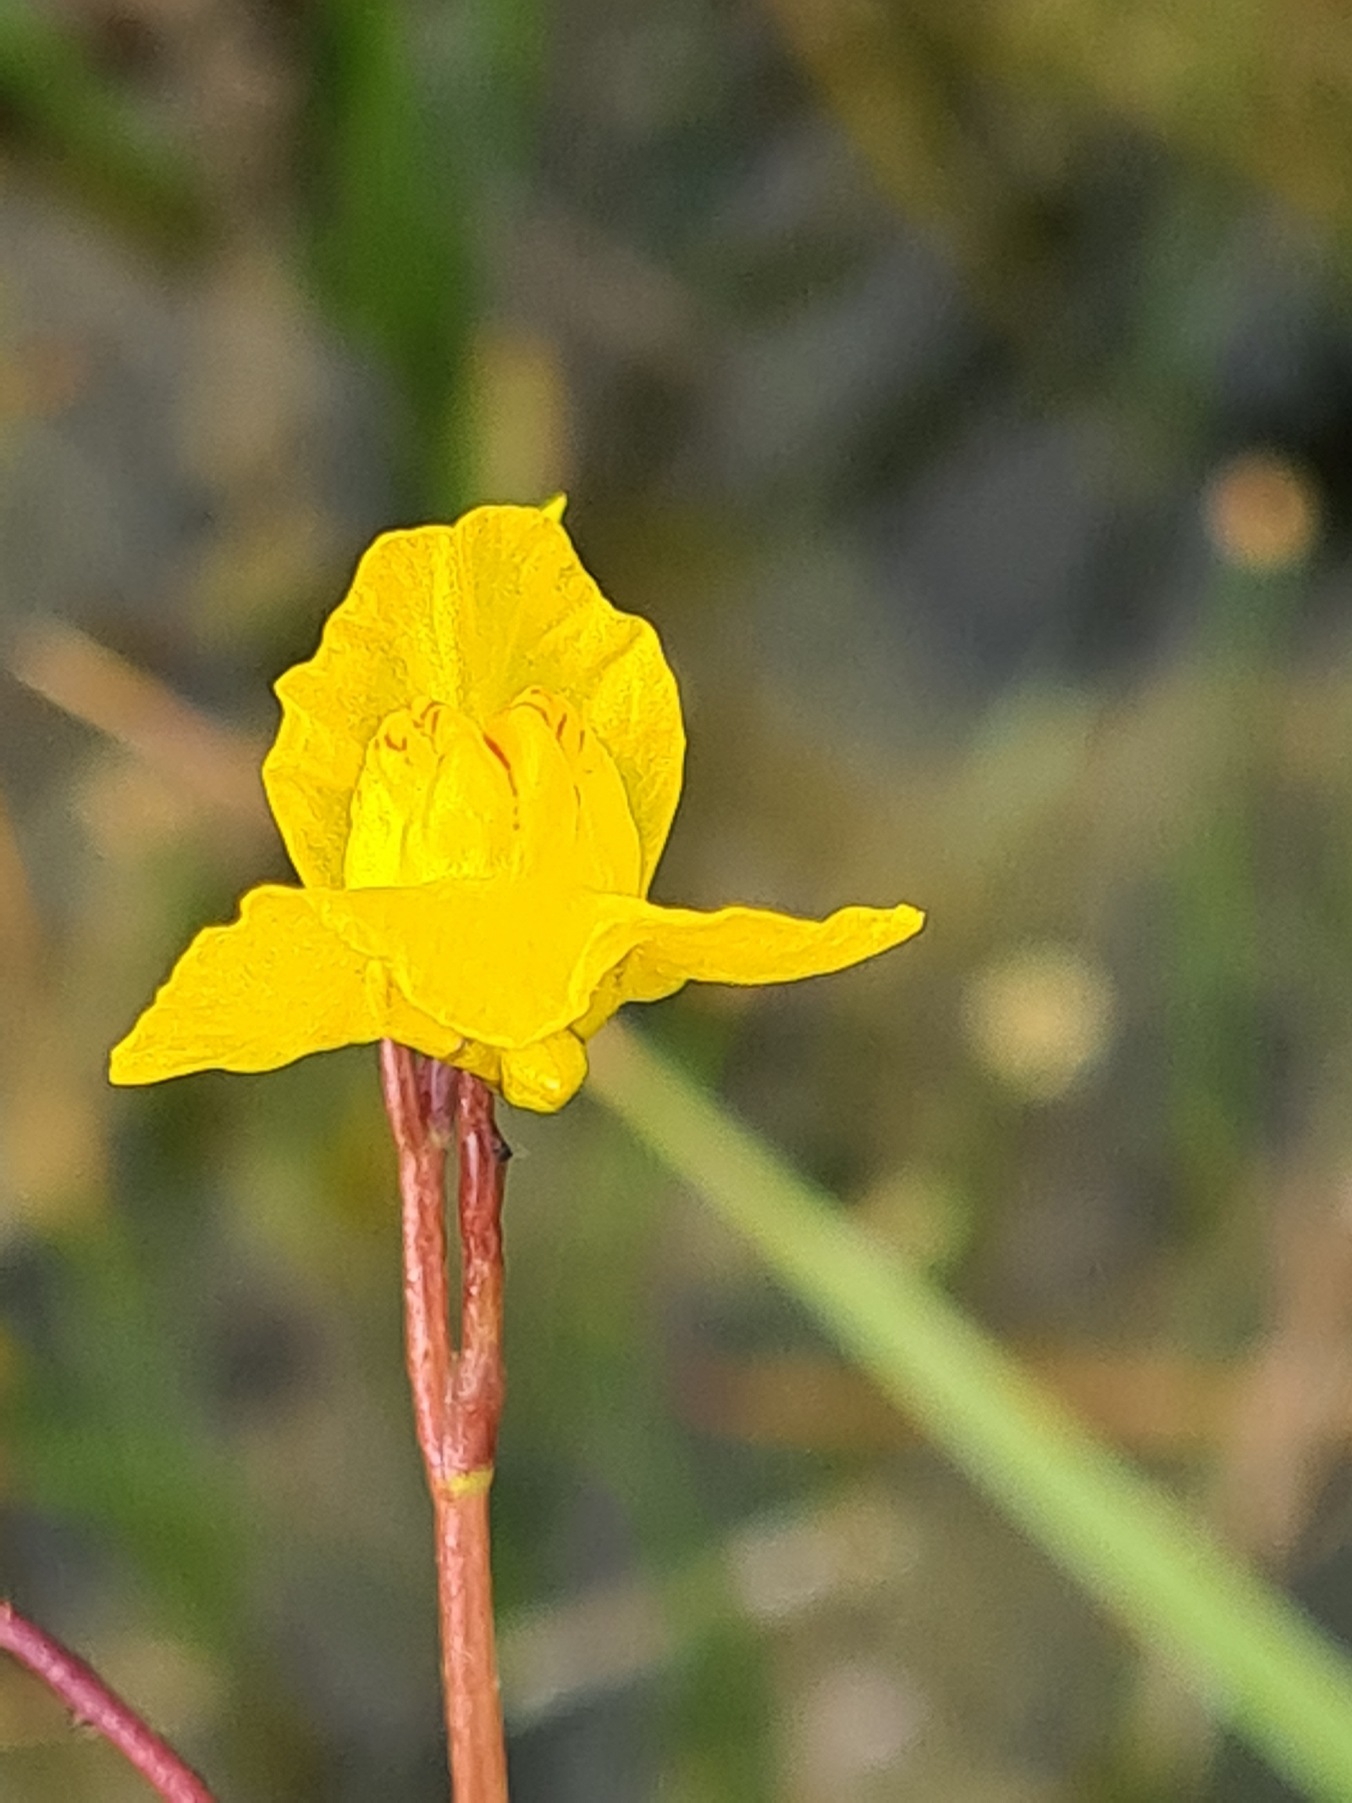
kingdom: Plantae
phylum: Tracheophyta
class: Magnoliopsida
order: Lamiales
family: Lentibulariaceae
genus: Utricularia
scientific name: Utricularia australis
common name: Slank blærerod
